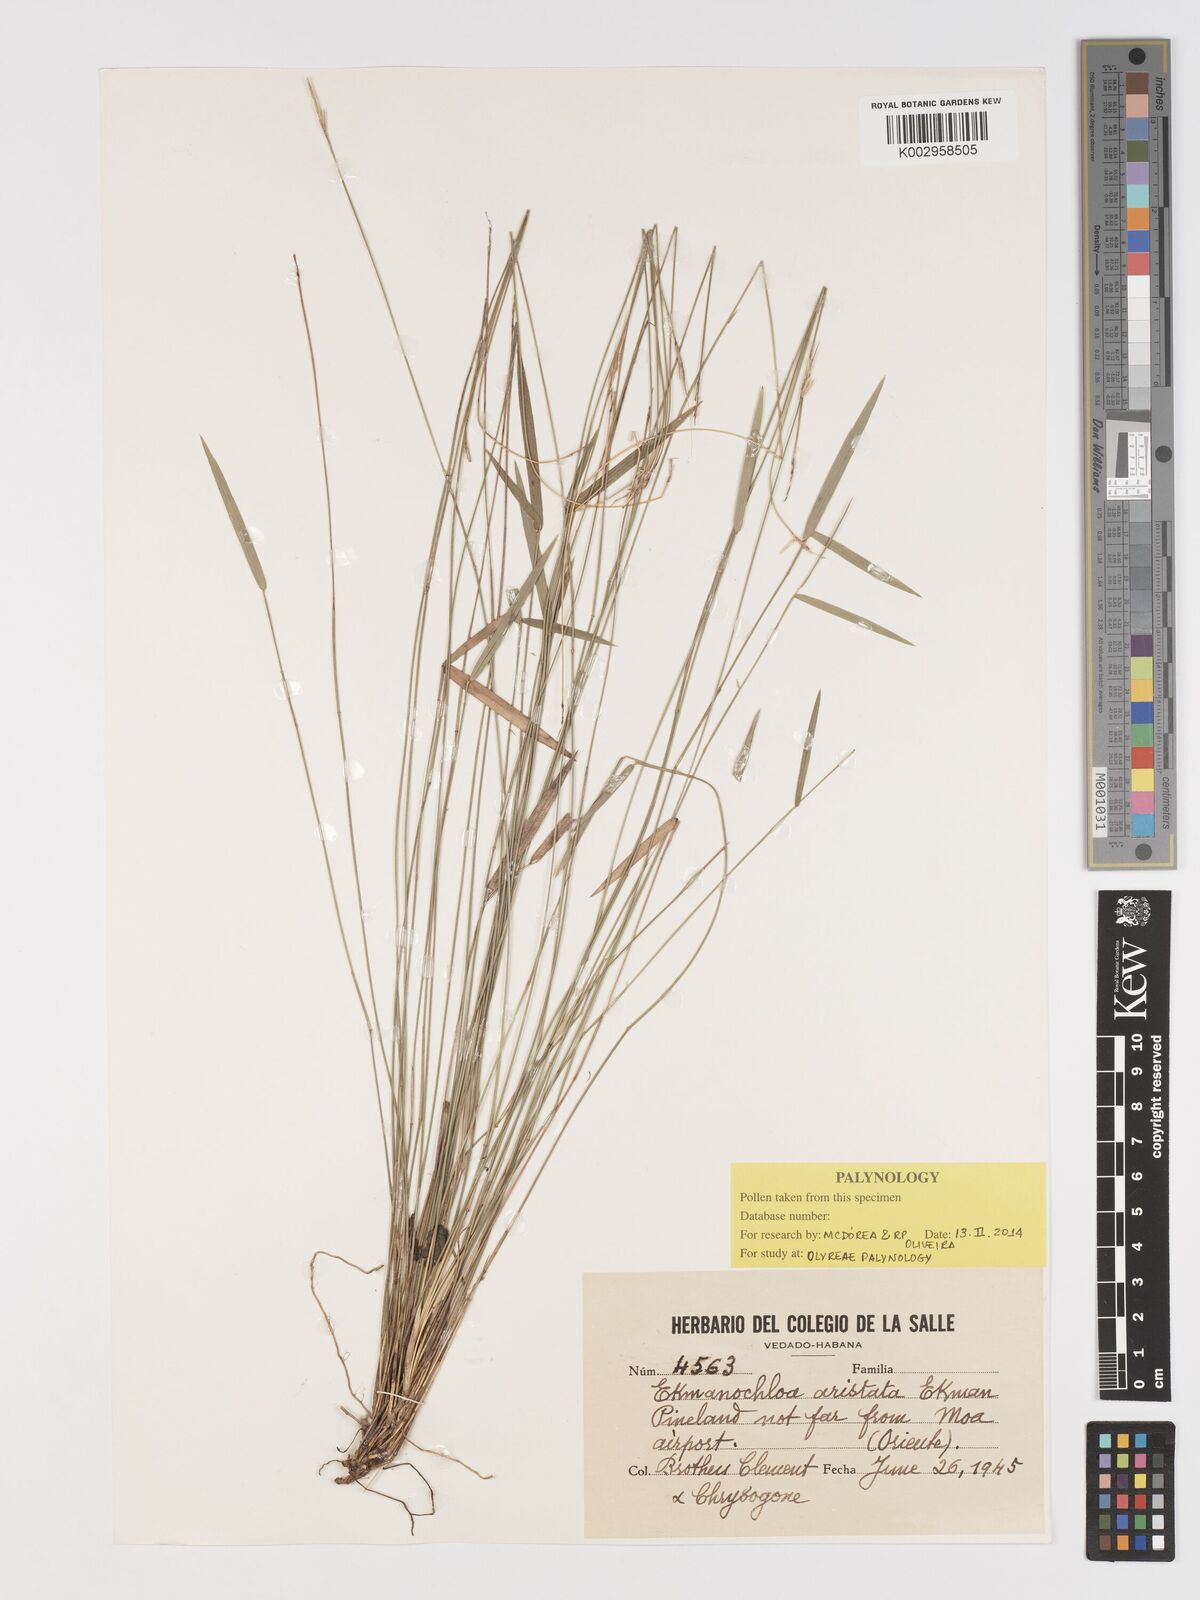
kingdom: Plantae
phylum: Tracheophyta
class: Liliopsida
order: Poales
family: Poaceae
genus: Ekmanochloa
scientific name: Ekmanochloa aristata
